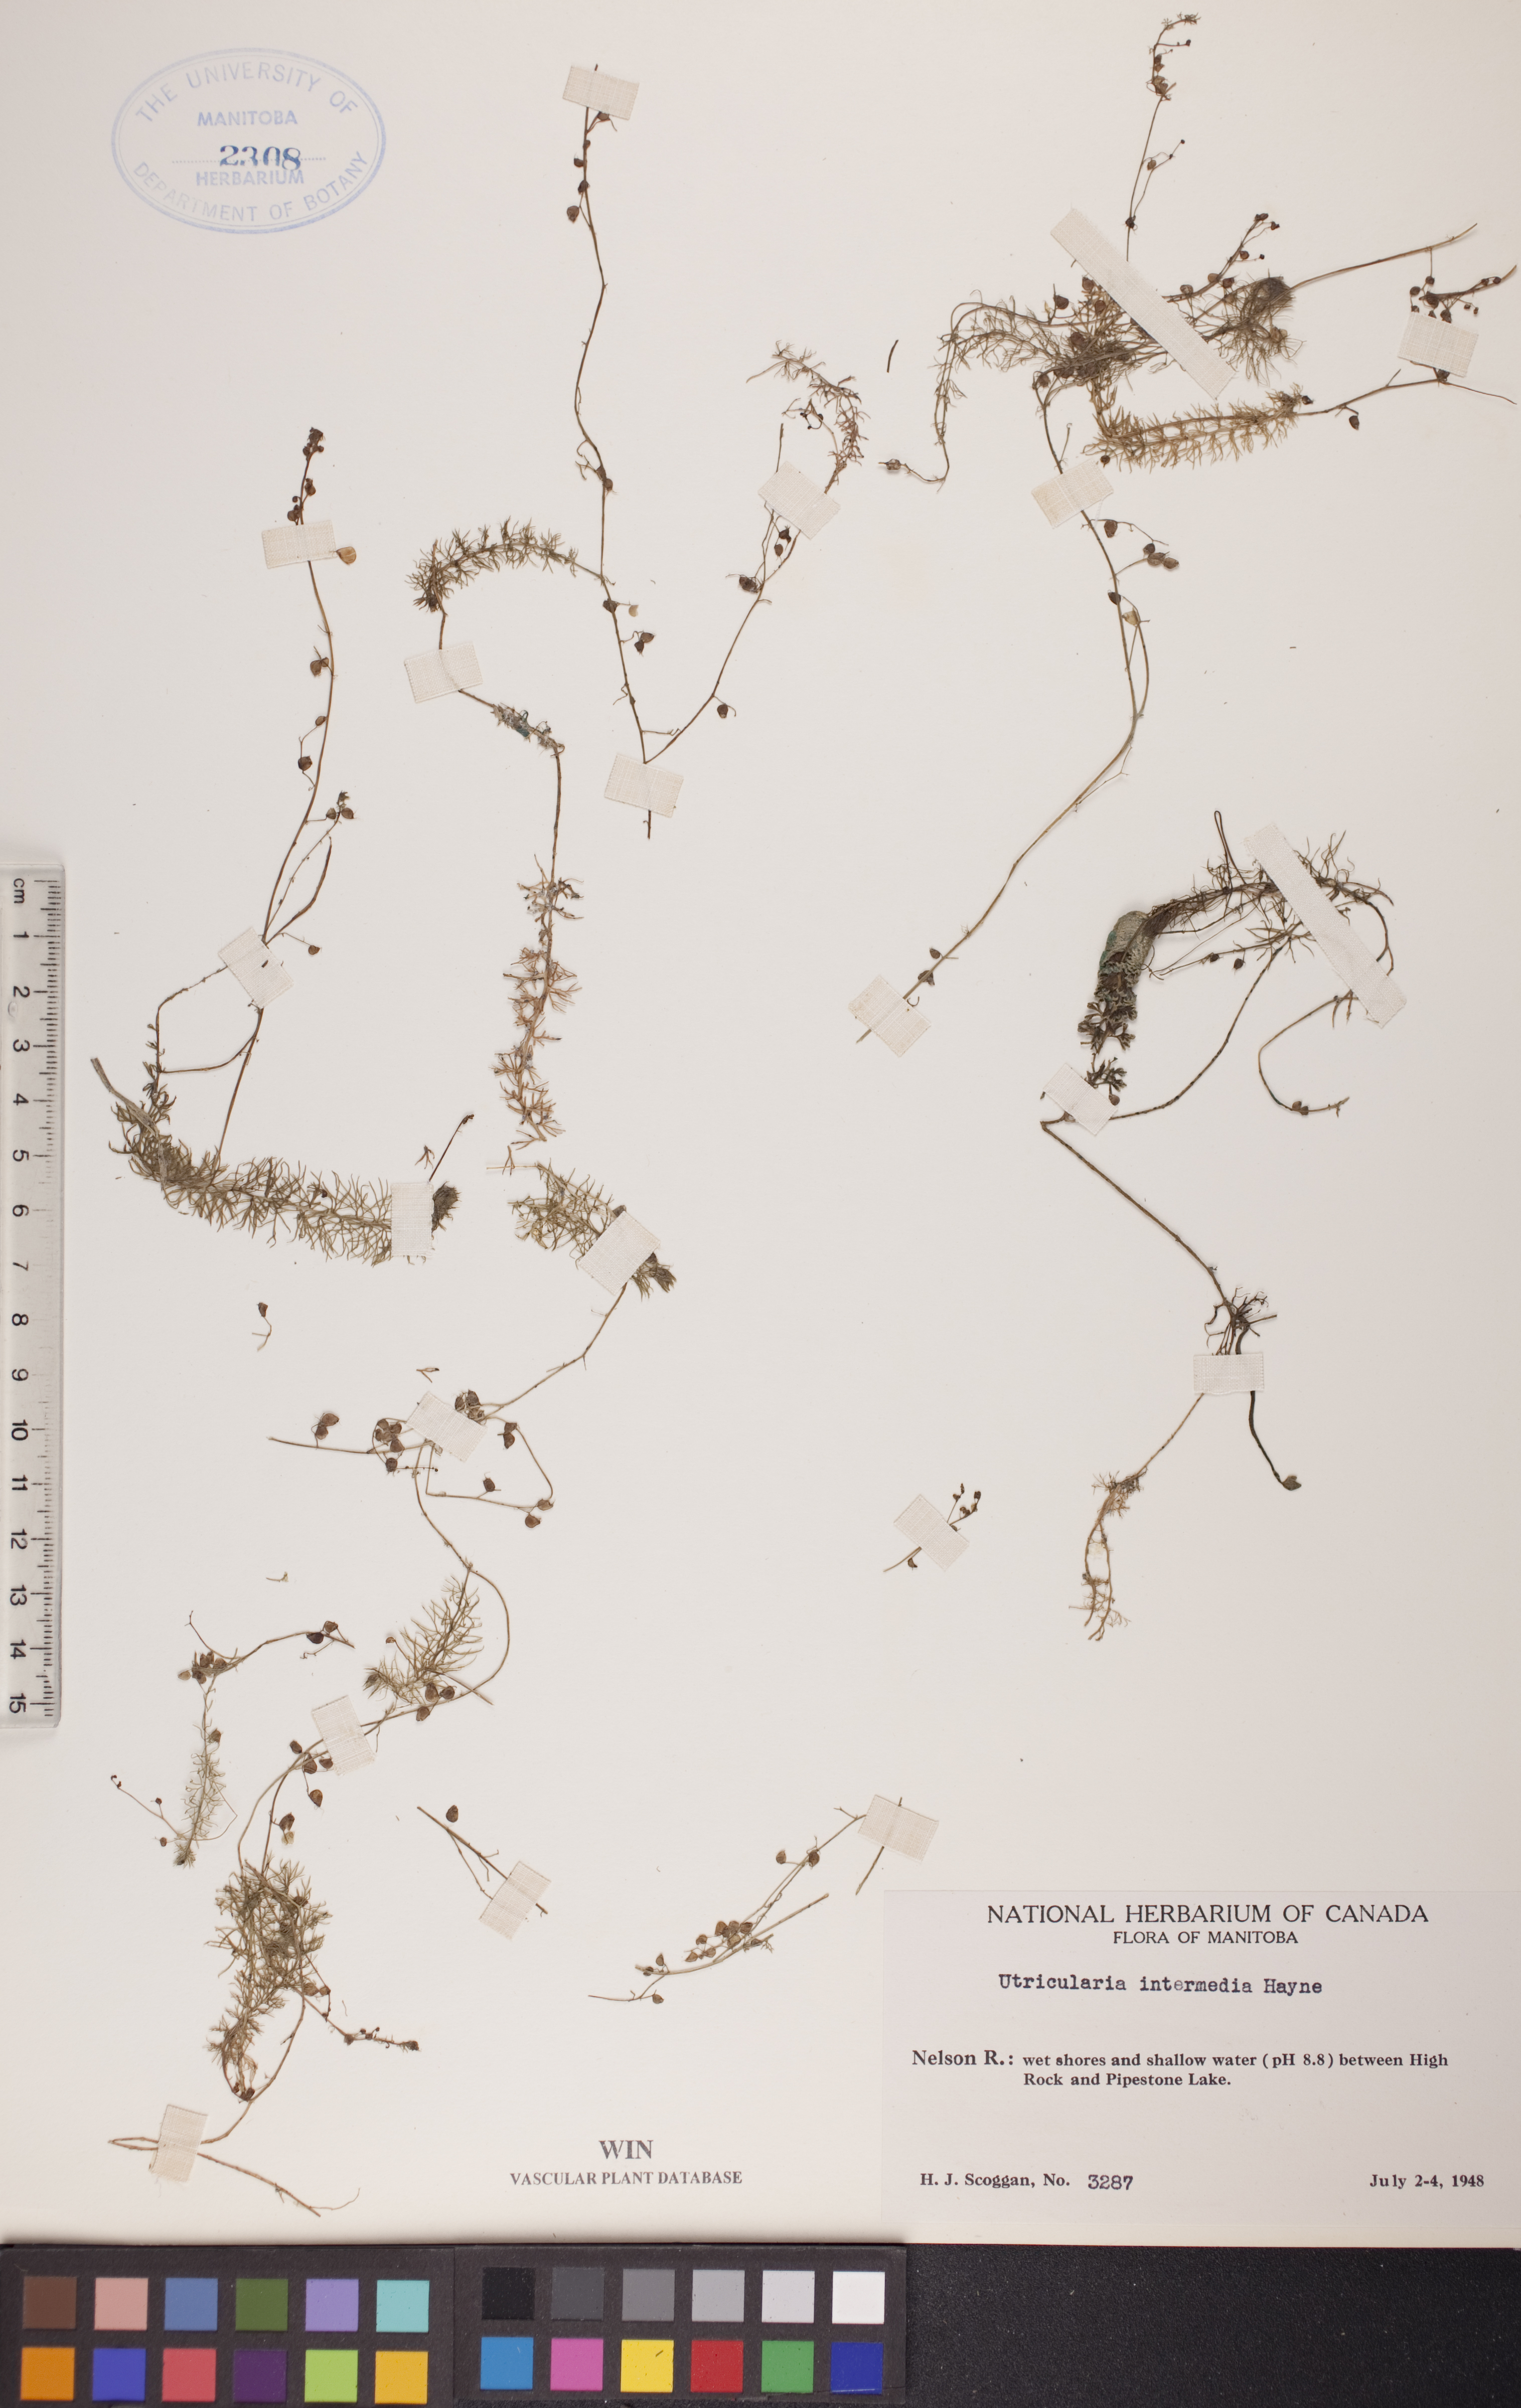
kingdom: Plantae
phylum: Tracheophyta
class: Magnoliopsida
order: Lamiales
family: Lentibulariaceae
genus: Utricularia
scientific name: Utricularia intermedia
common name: Intermediate bladderwort
